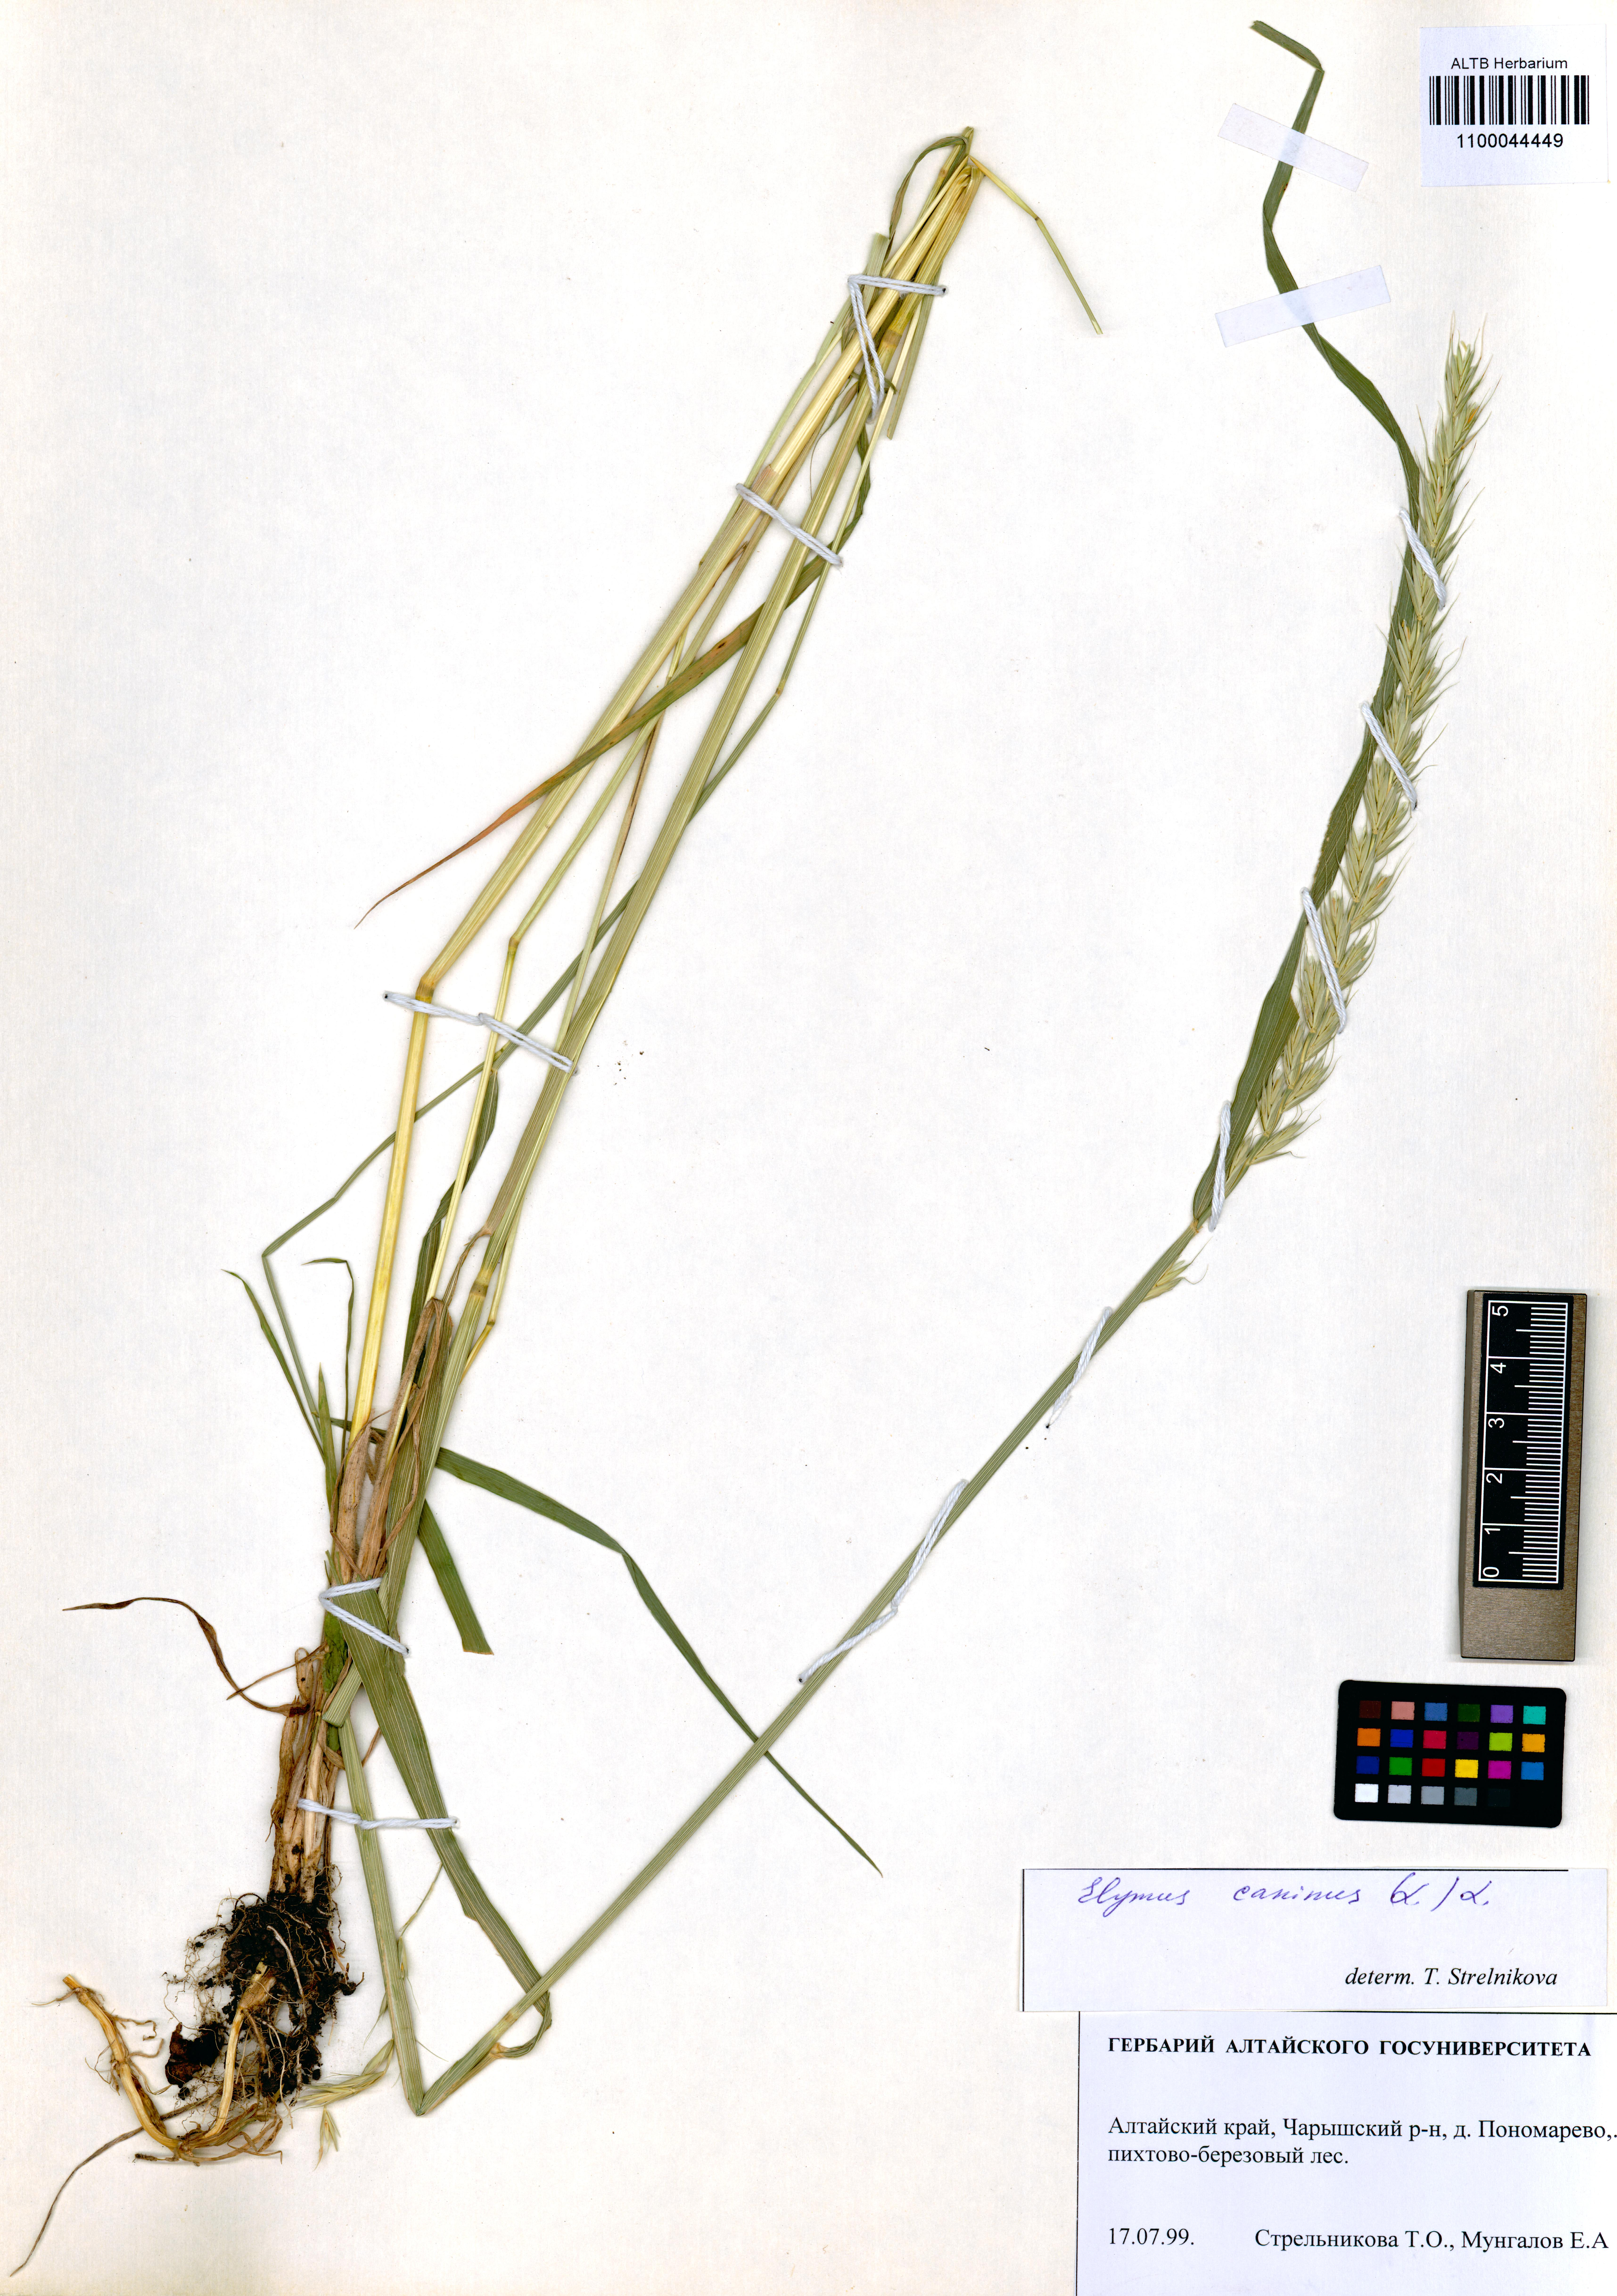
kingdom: Plantae
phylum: Tracheophyta
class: Liliopsida
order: Poales
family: Poaceae
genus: Elymus
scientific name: Elymus caninus
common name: Bearded couch
